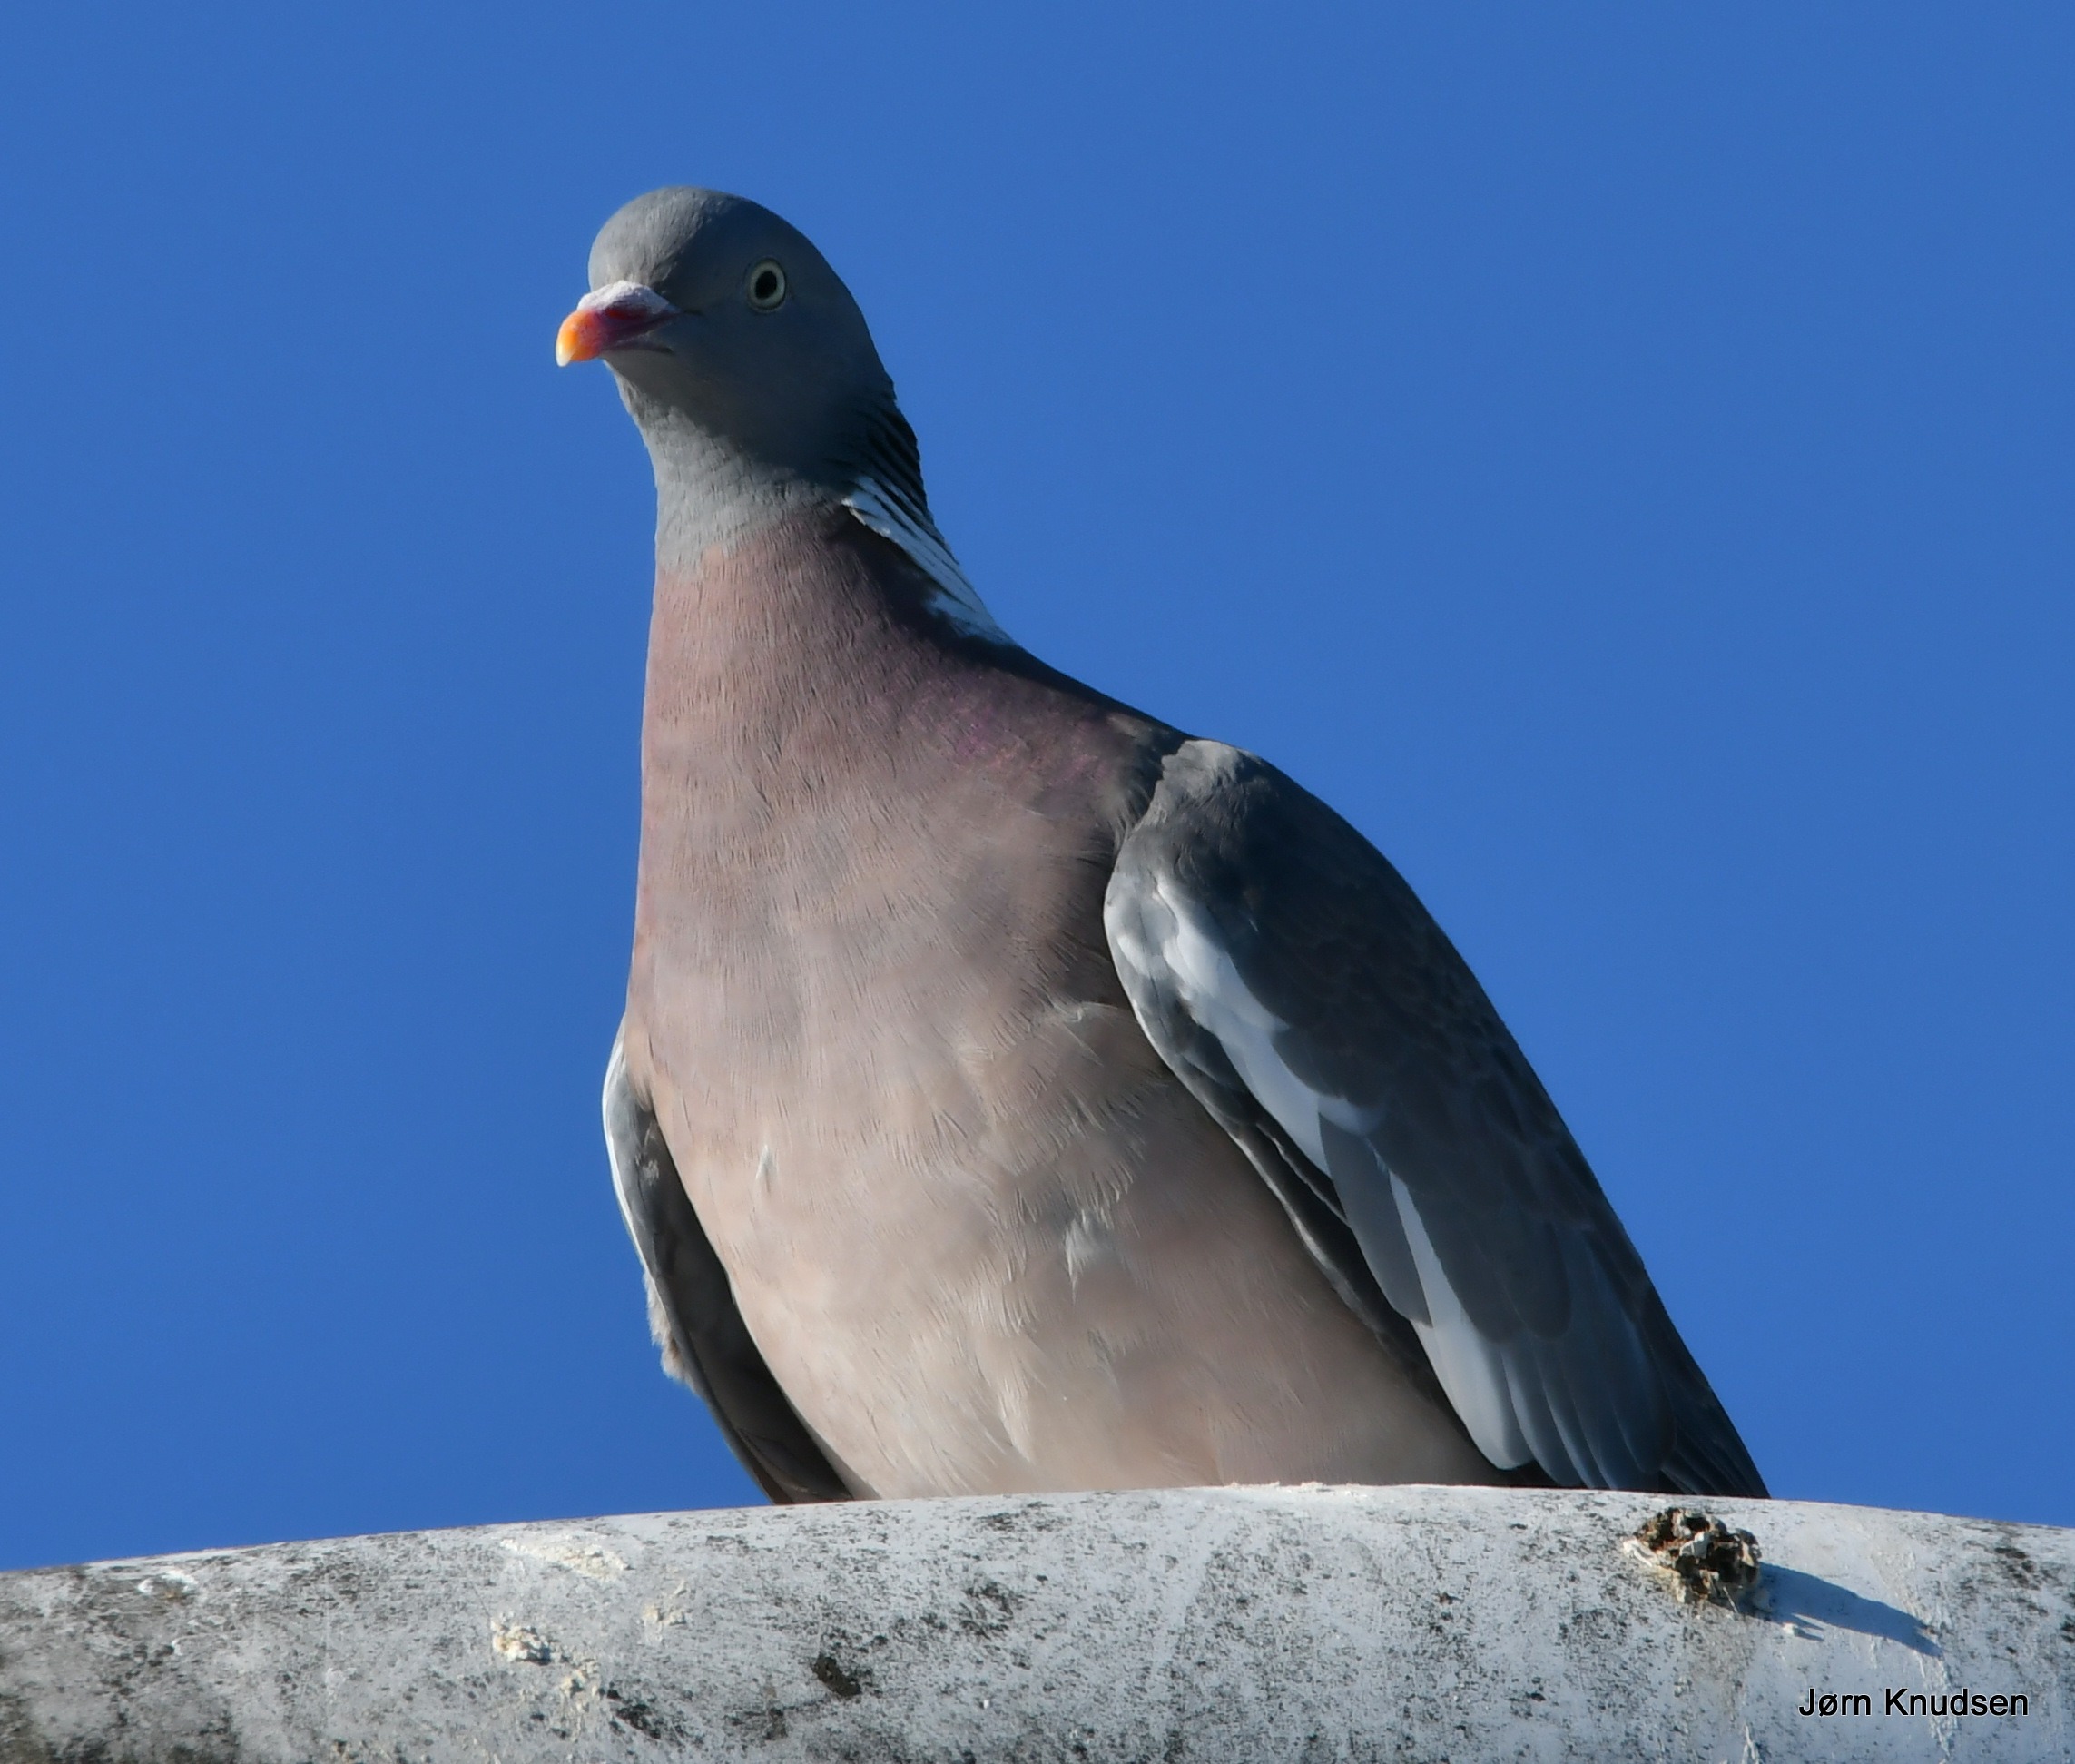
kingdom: Animalia
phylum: Chordata
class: Aves
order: Columbiformes
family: Columbidae
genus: Columba
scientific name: Columba palumbus
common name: Ringdue
